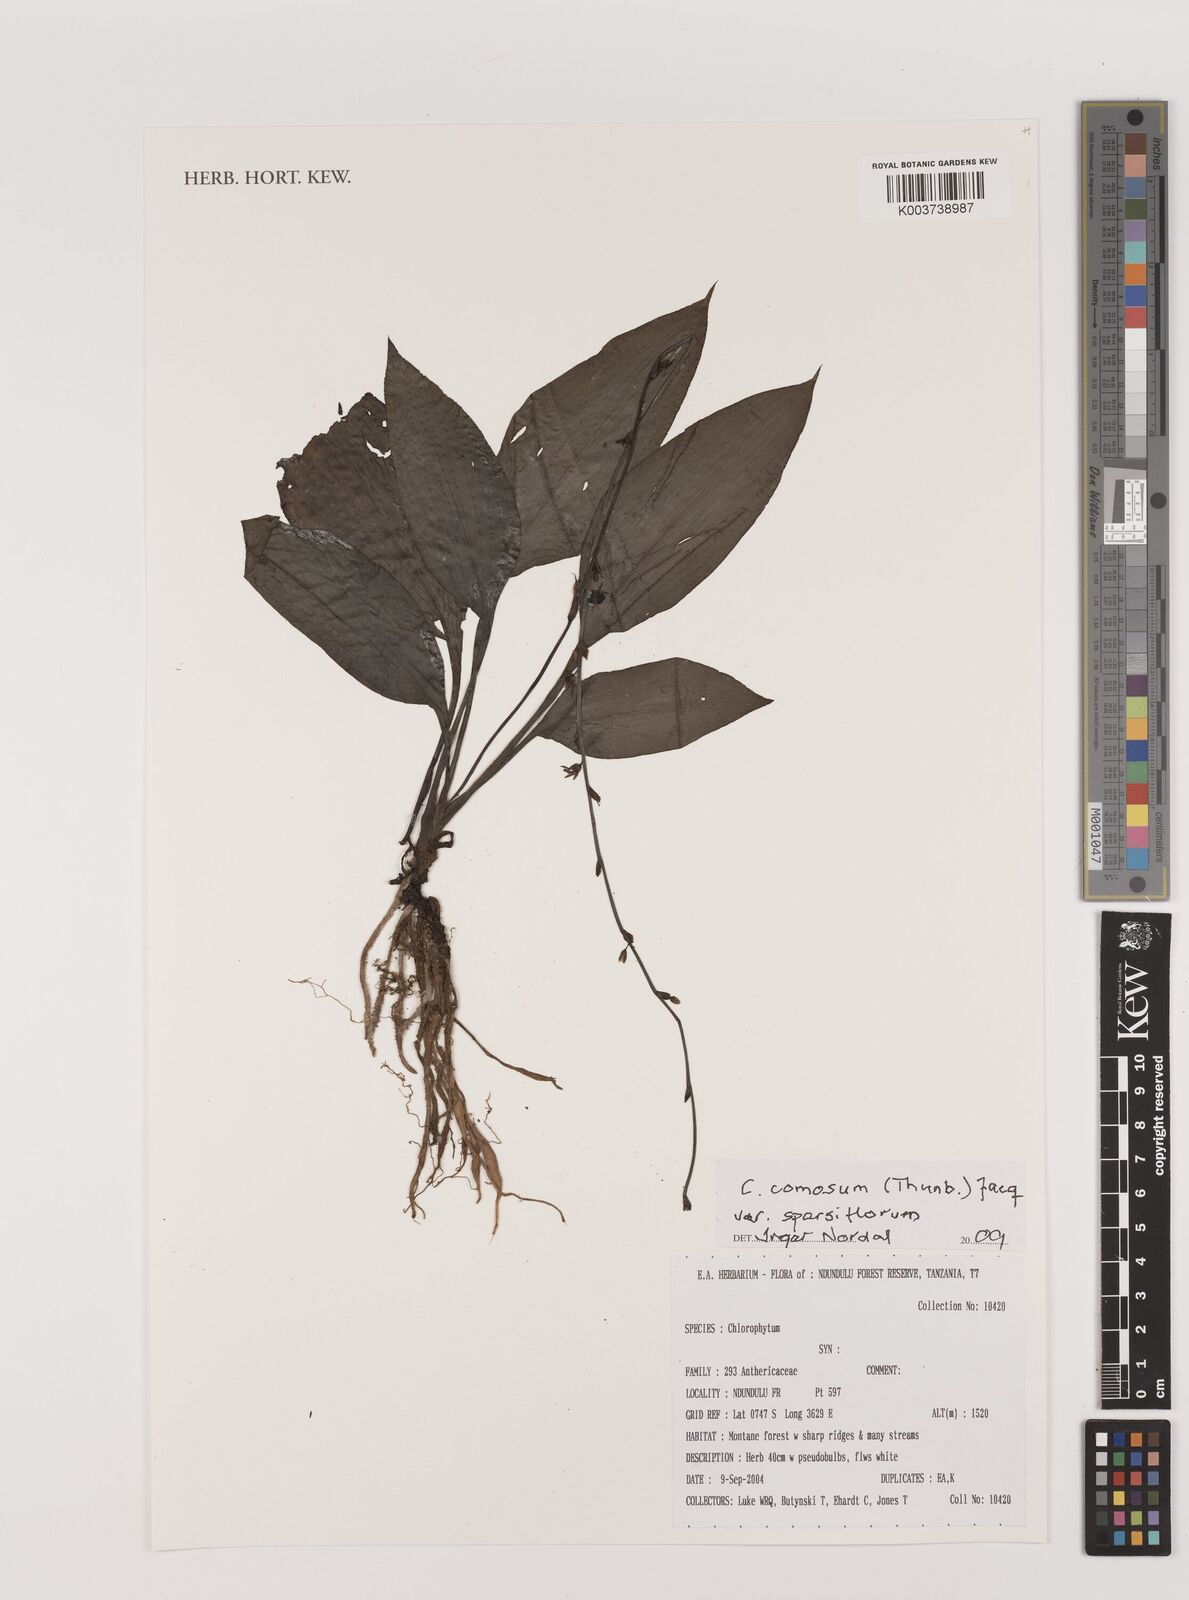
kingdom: Plantae
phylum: Tracheophyta
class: Liliopsida
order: Asparagales
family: Asparagaceae
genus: Chlorophytum
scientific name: Chlorophytum sparsiflorum
